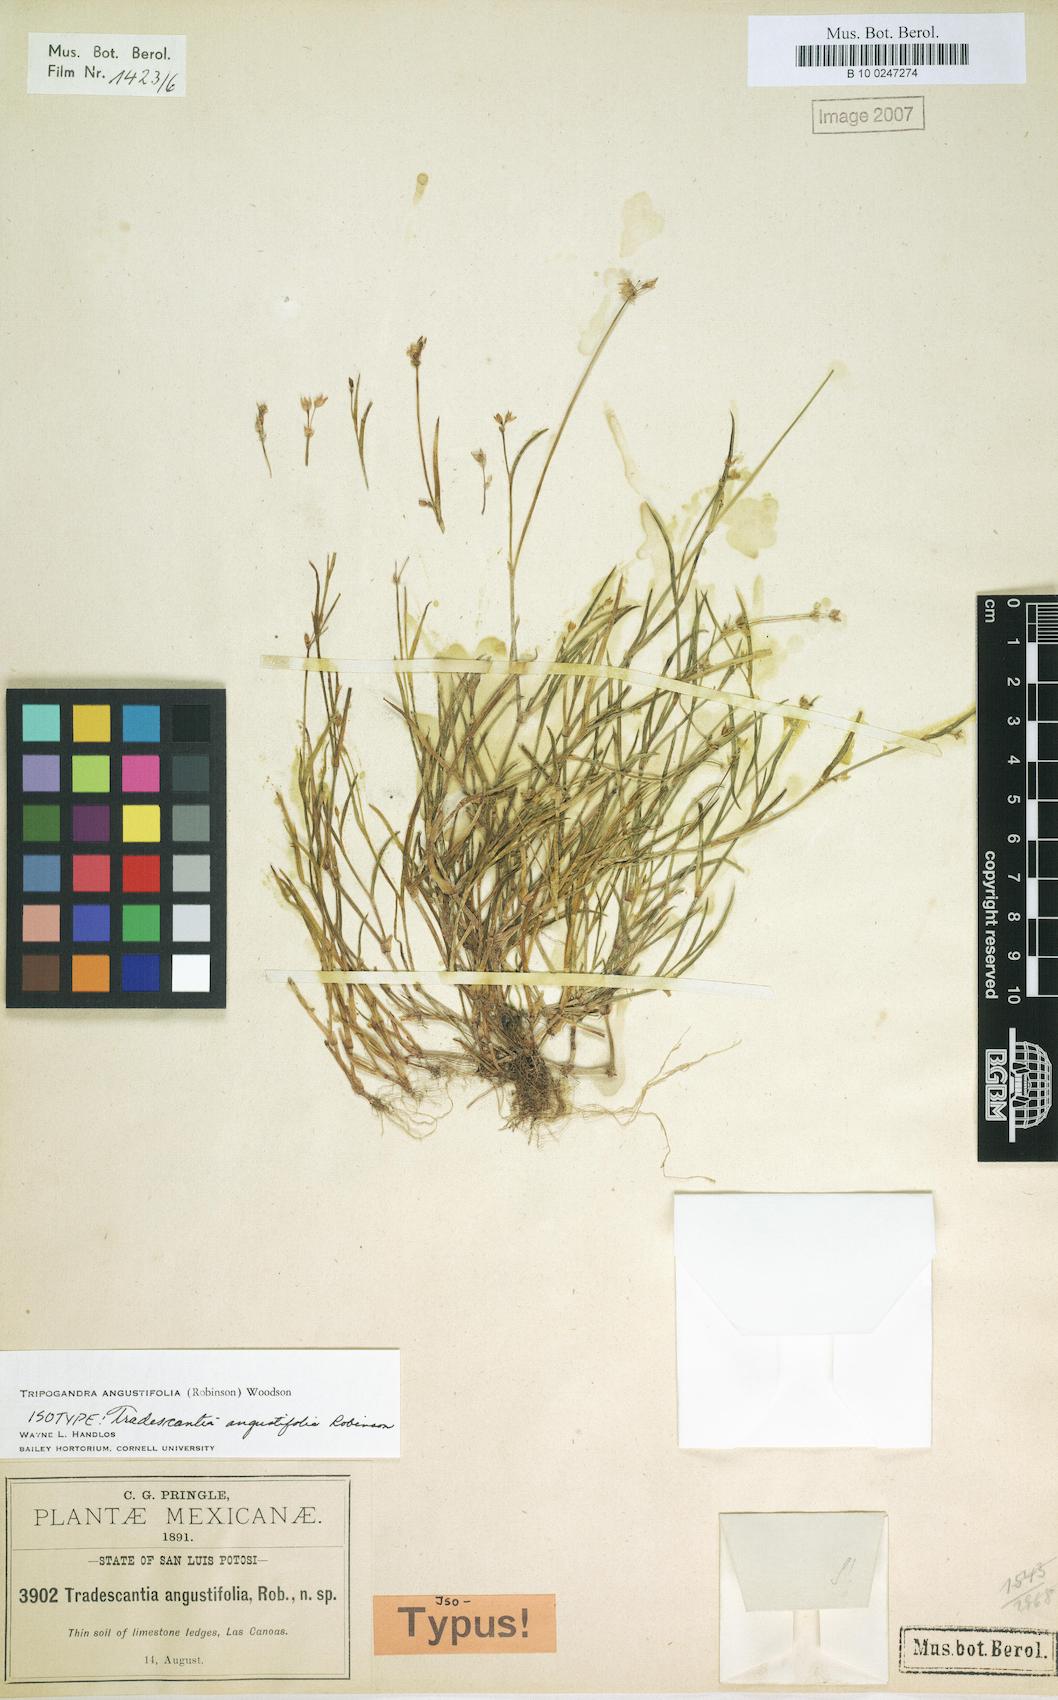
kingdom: Plantae
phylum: Tracheophyta
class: Liliopsida
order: Commelinales
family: Commelinaceae
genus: Callisia
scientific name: Callisia angustifolia
